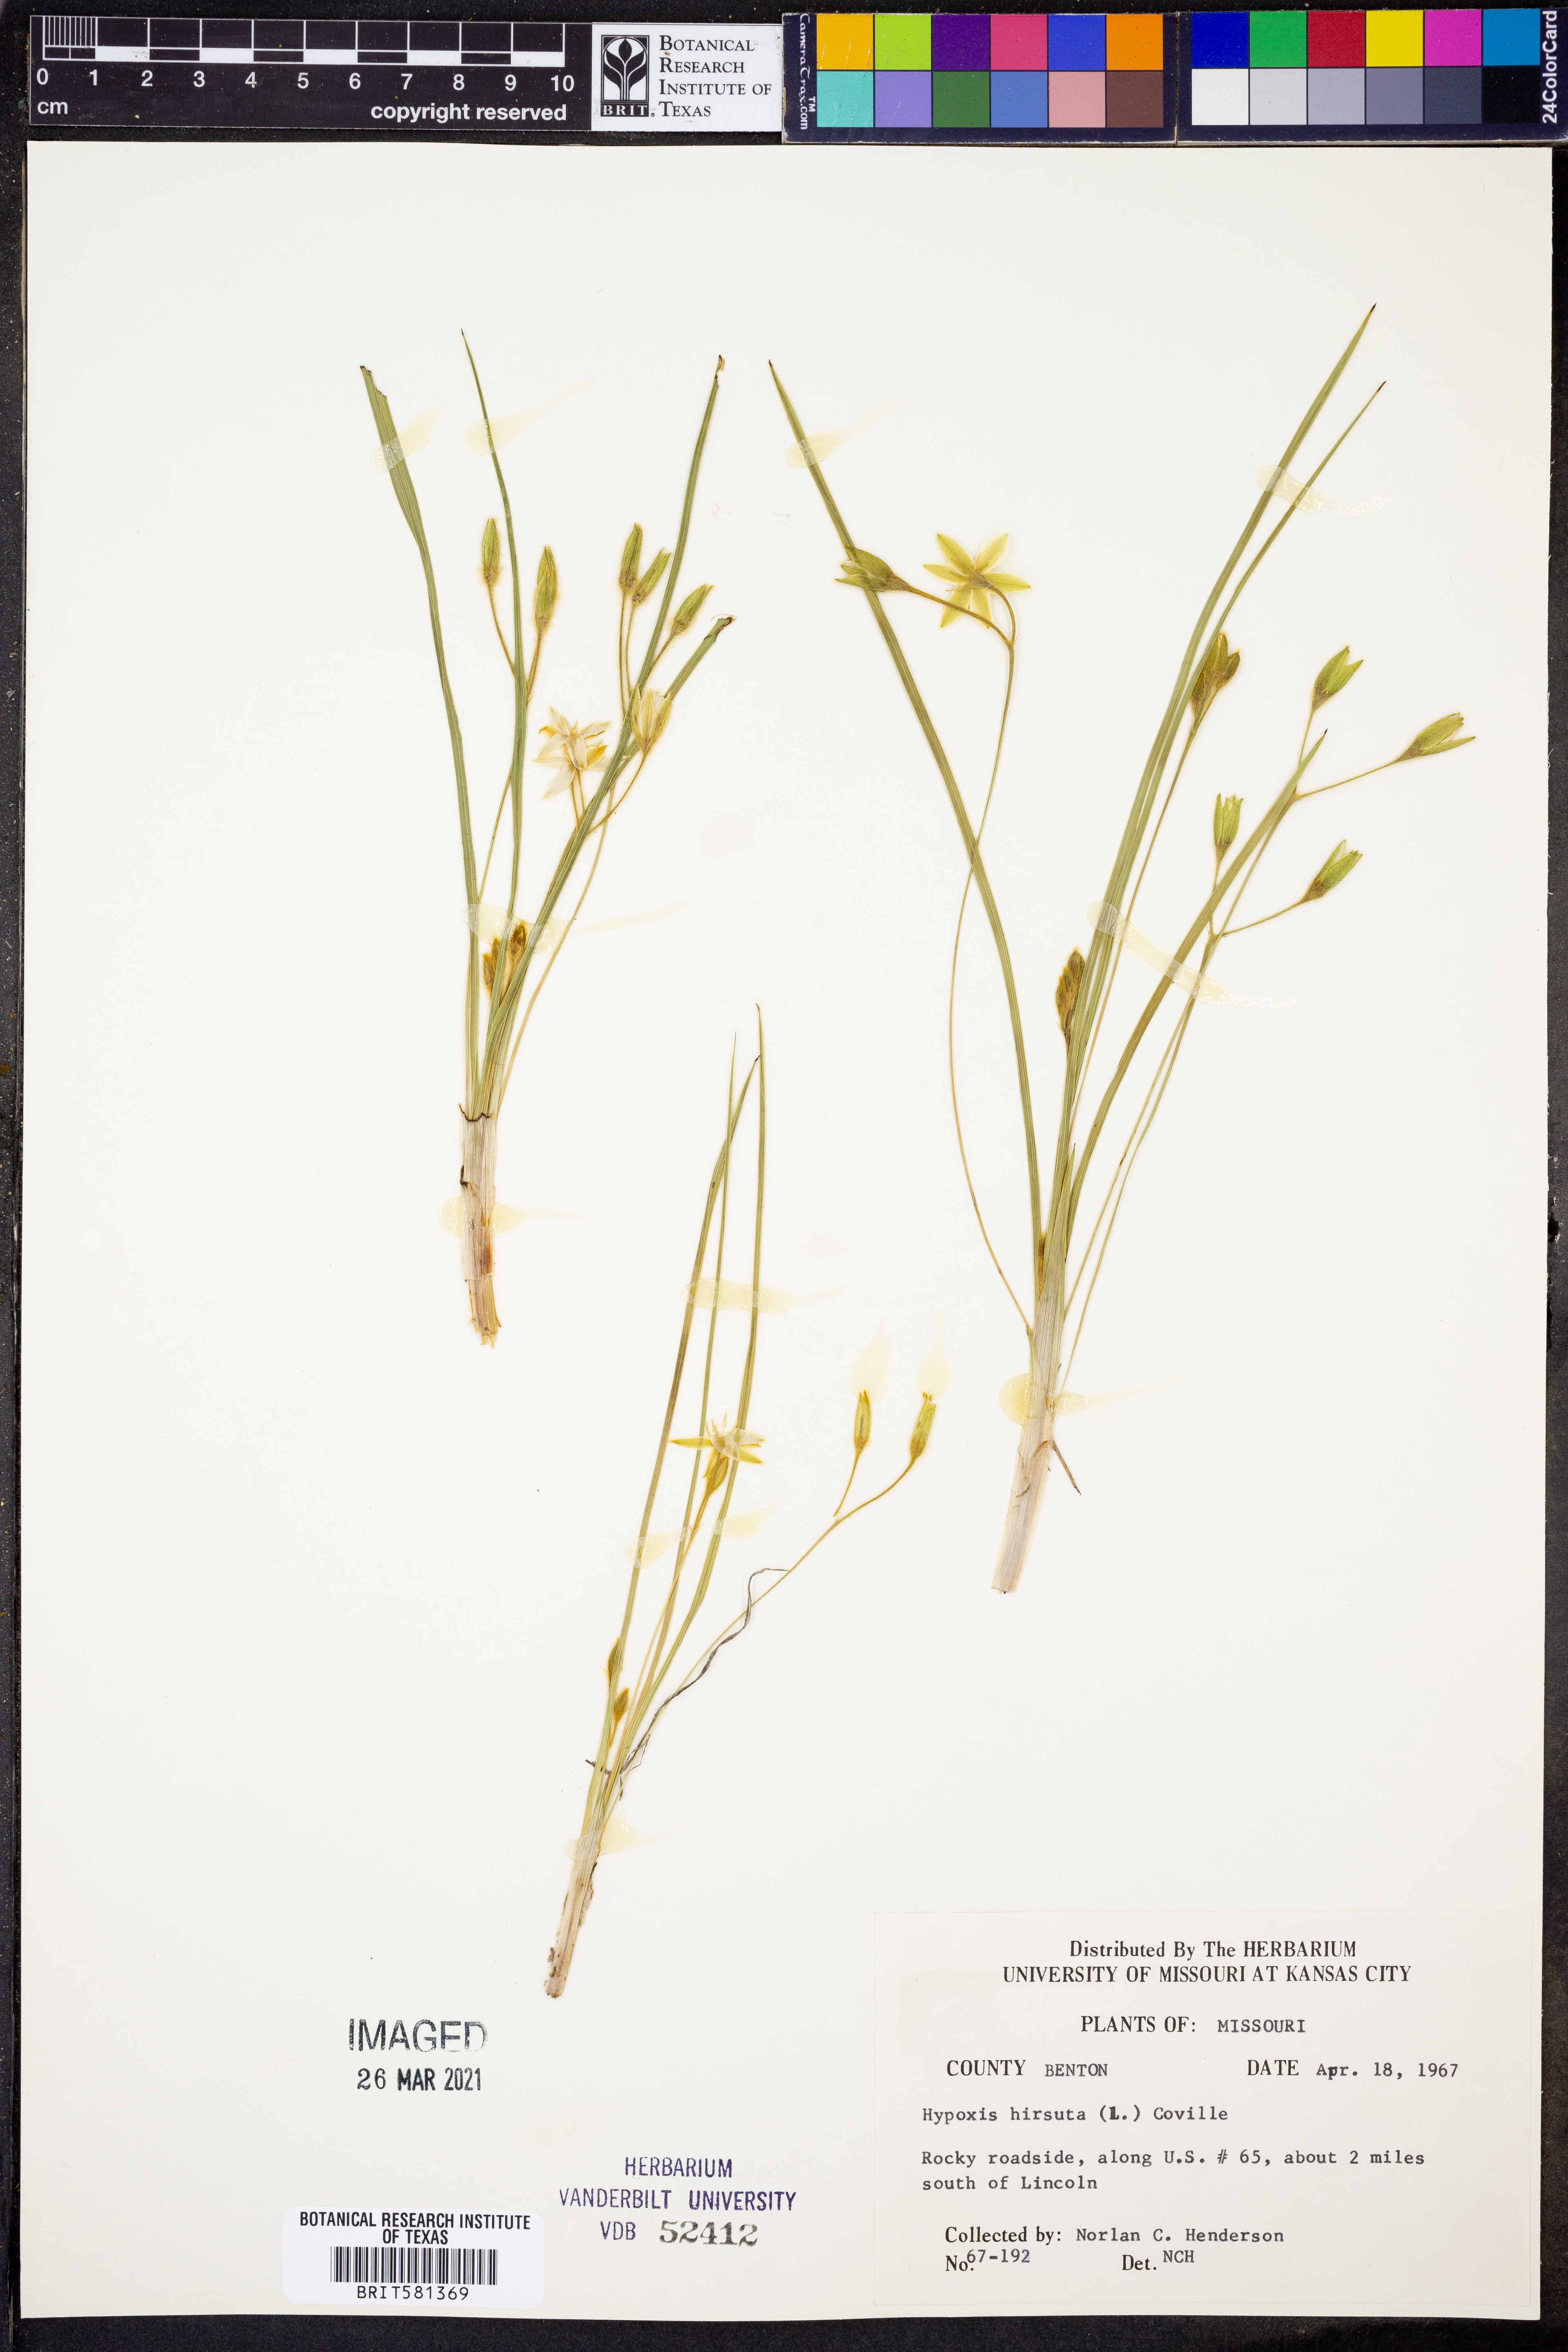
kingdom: Plantae
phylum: Tracheophyta
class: Liliopsida
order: Asparagales
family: Hypoxidaceae
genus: Hypoxis
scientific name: Hypoxis hirsuta
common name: Common goldstar
